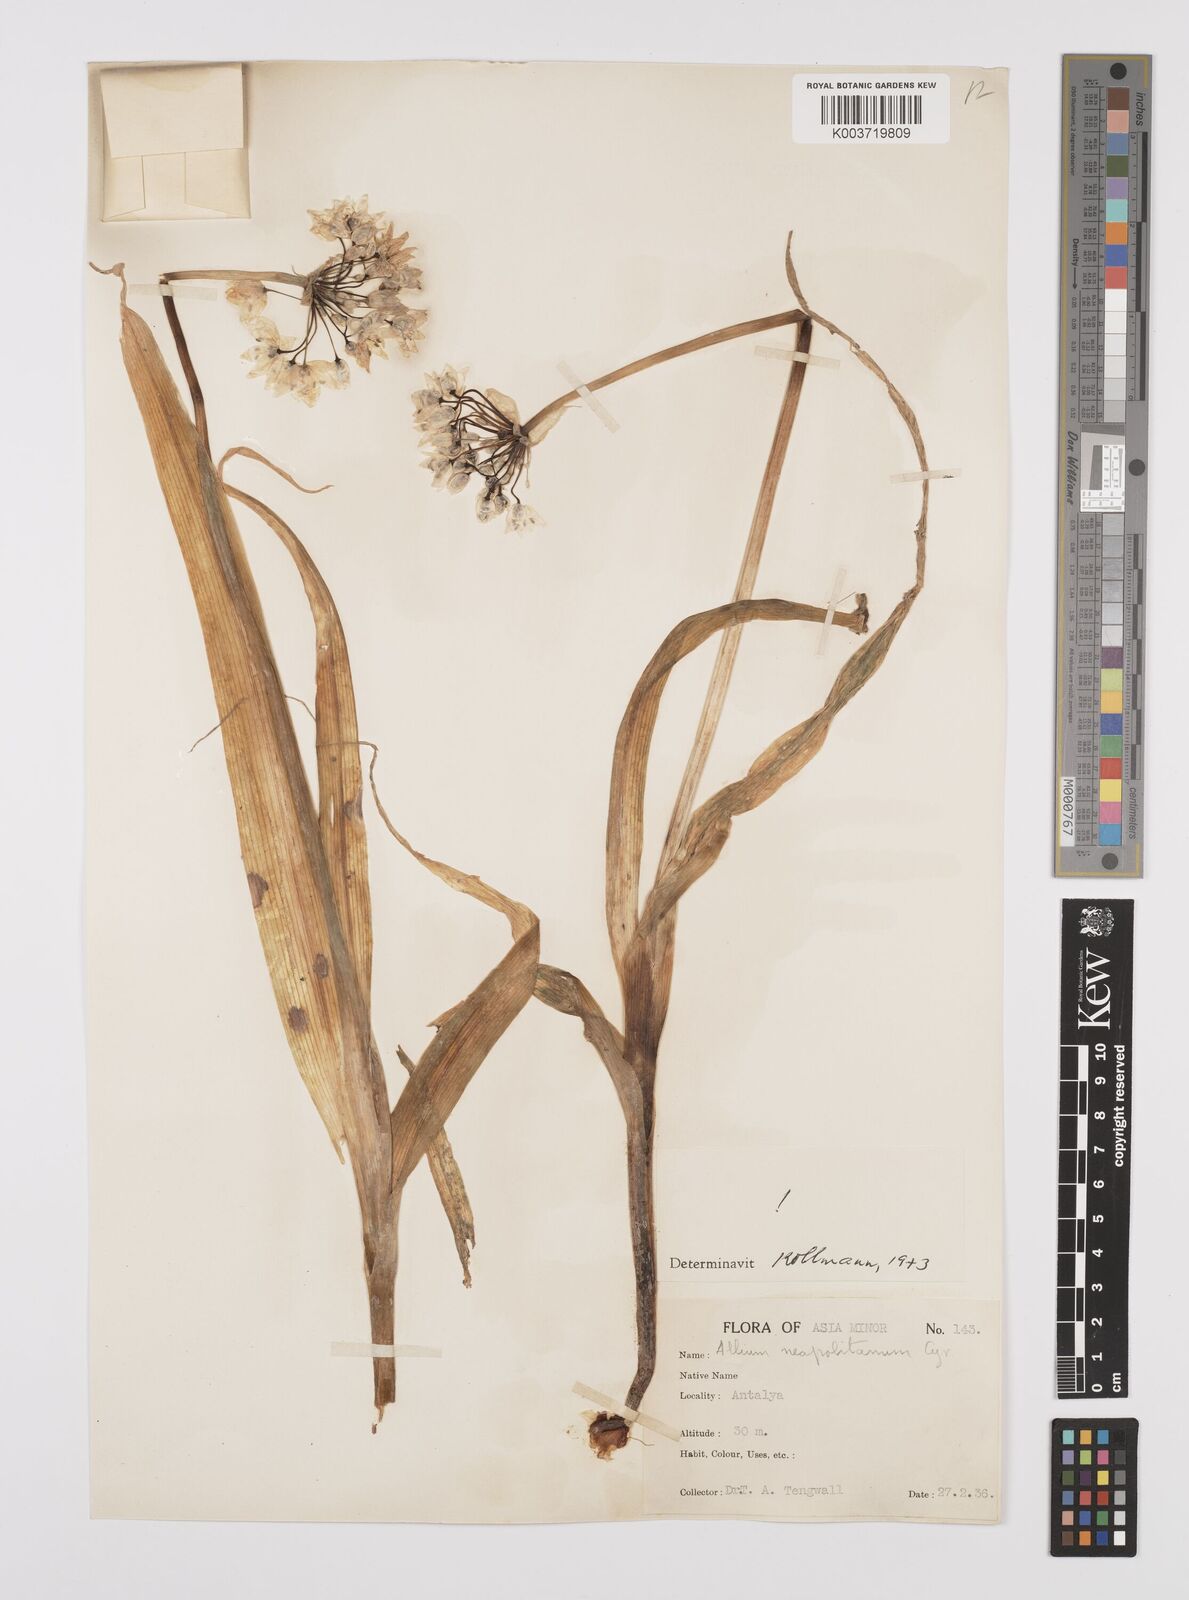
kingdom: Plantae
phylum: Tracheophyta
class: Liliopsida
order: Asparagales
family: Amaryllidaceae
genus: Allium
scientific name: Allium neapolitanum
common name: Neapolitan garlic
